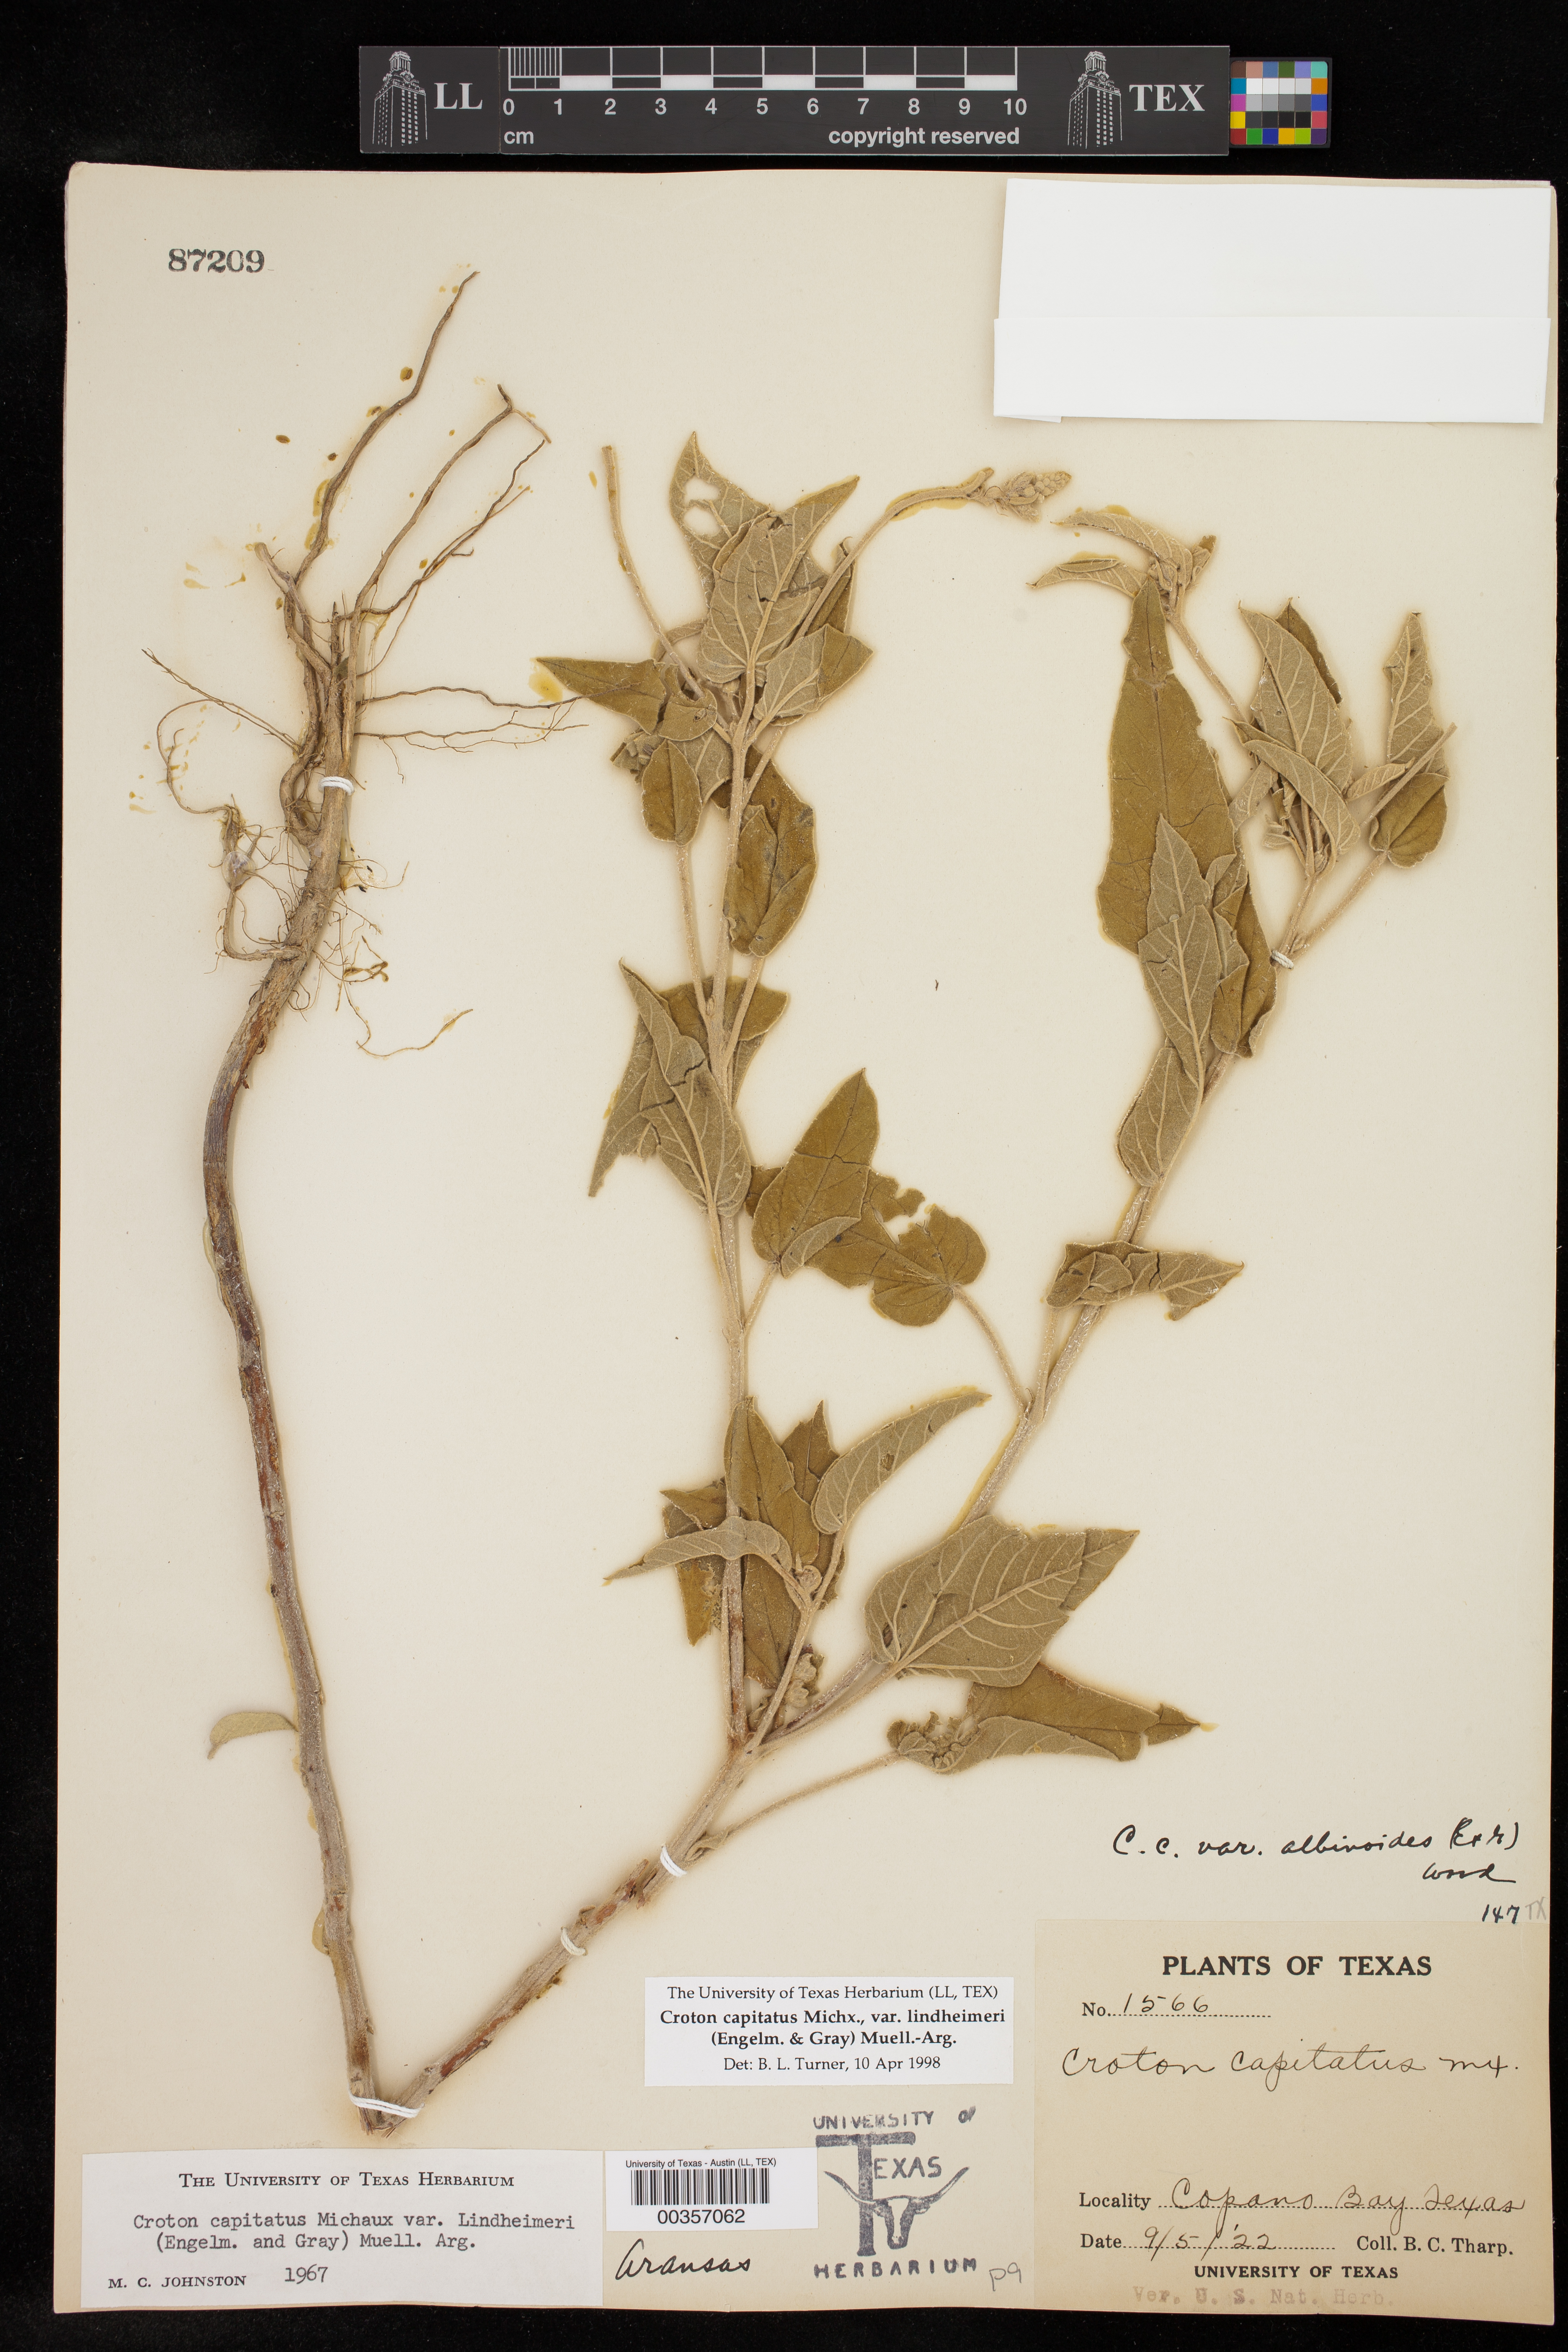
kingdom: Plantae
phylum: Tracheophyta
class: Magnoliopsida
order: Malpighiales
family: Euphorbiaceae
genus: Croton
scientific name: Croton lindheimeri
